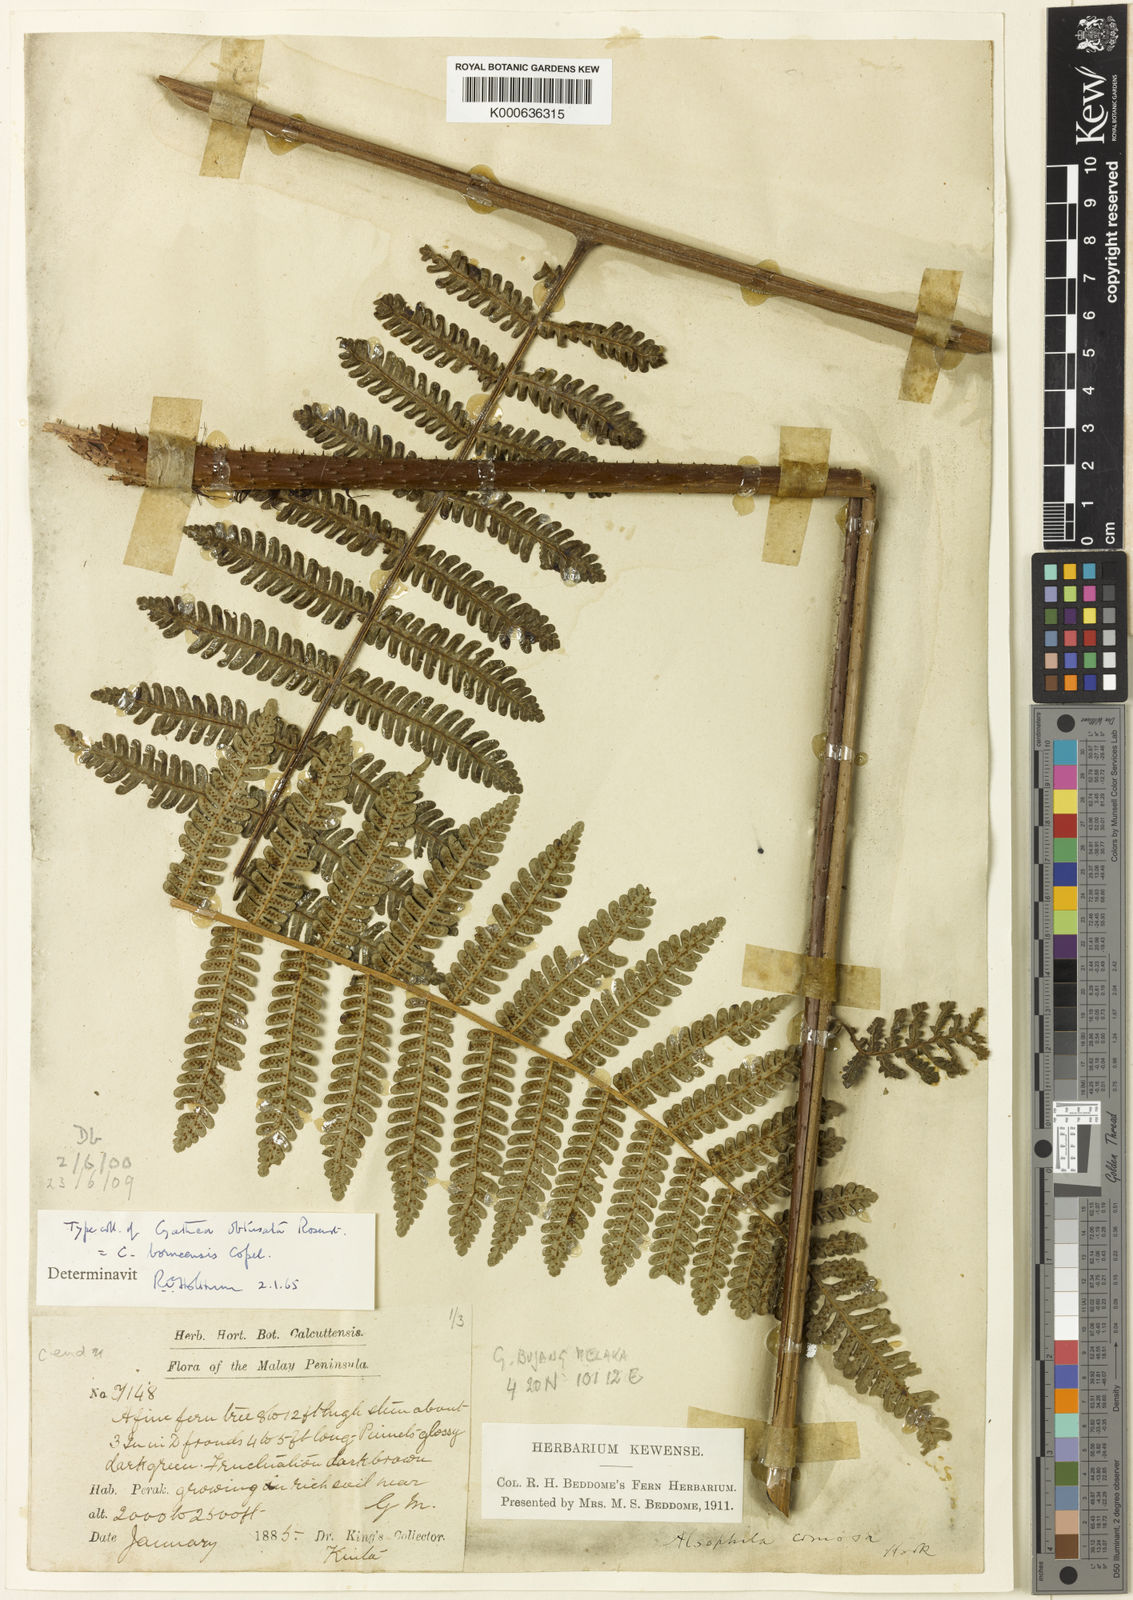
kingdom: Plantae
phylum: Tracheophyta
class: Polypodiopsida
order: Cyatheales
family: Cyatheaceae
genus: Alsophila
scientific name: Alsophila borneensis
